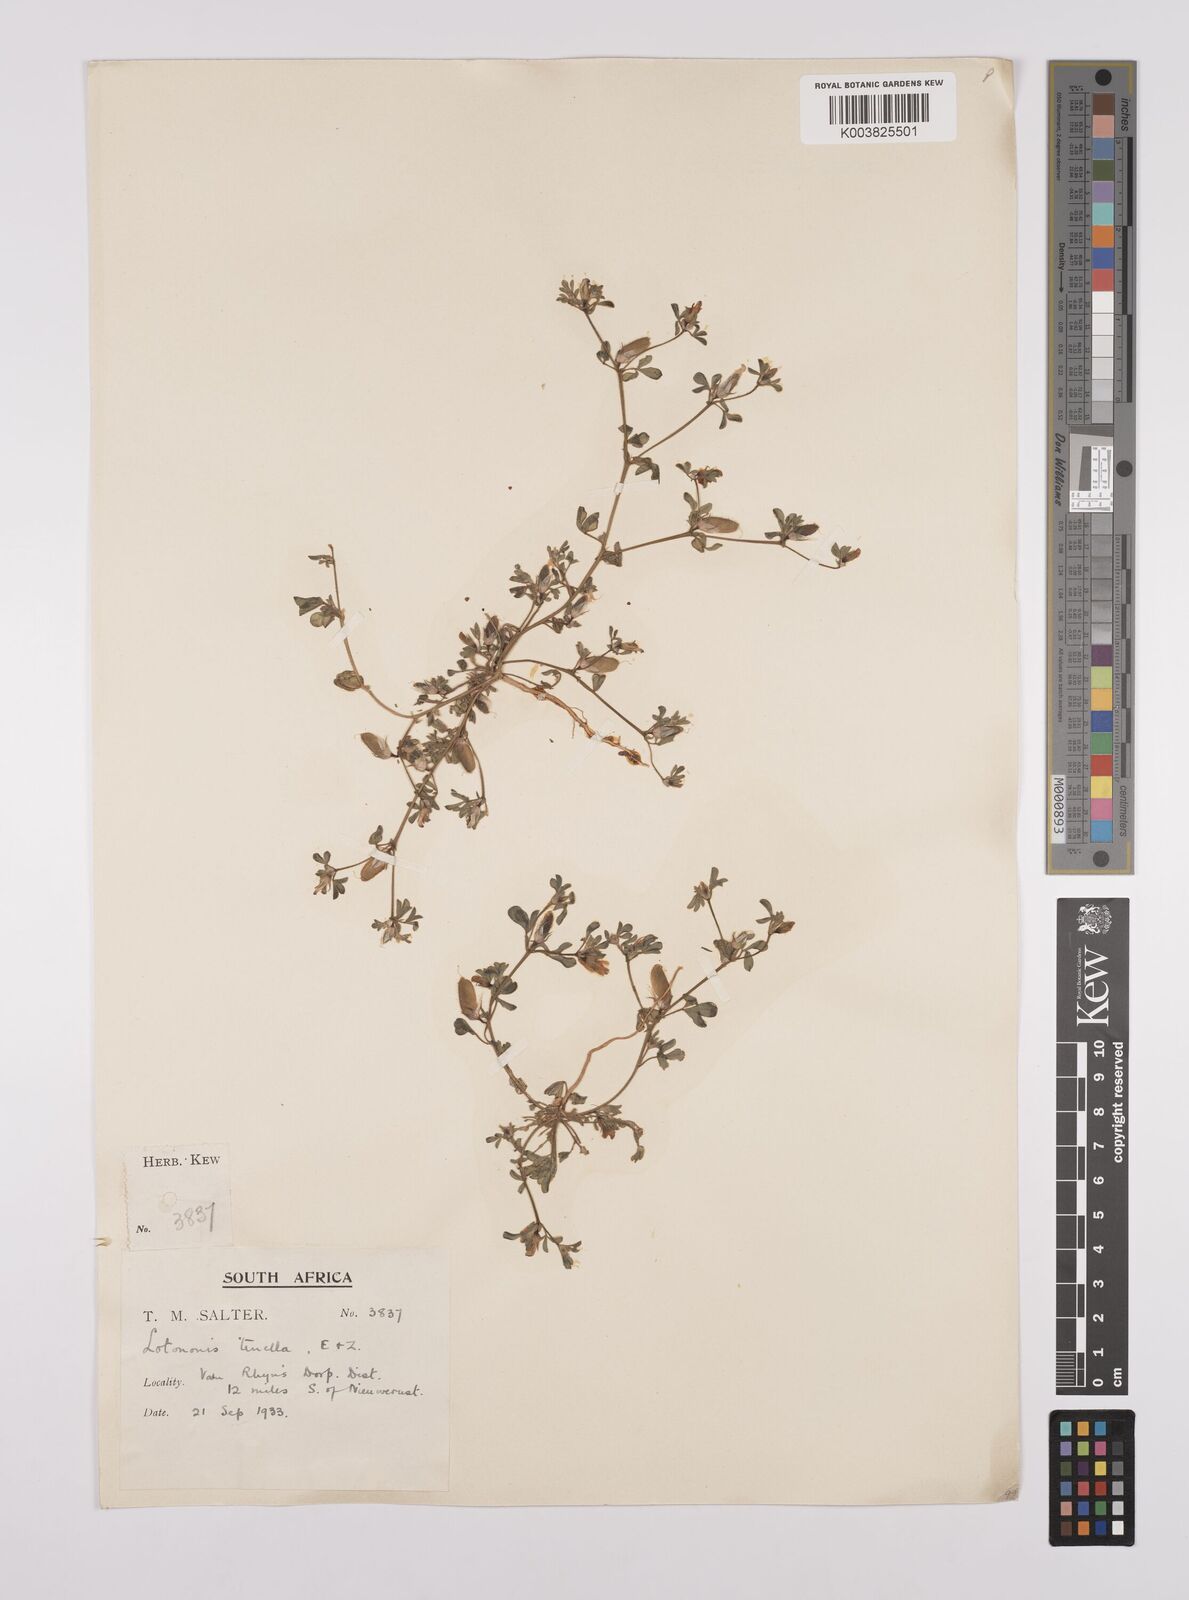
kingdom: Plantae
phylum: Tracheophyta
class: Magnoliopsida
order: Fabales
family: Fabaceae
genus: Lotononis
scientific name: Lotononis leptoloba
